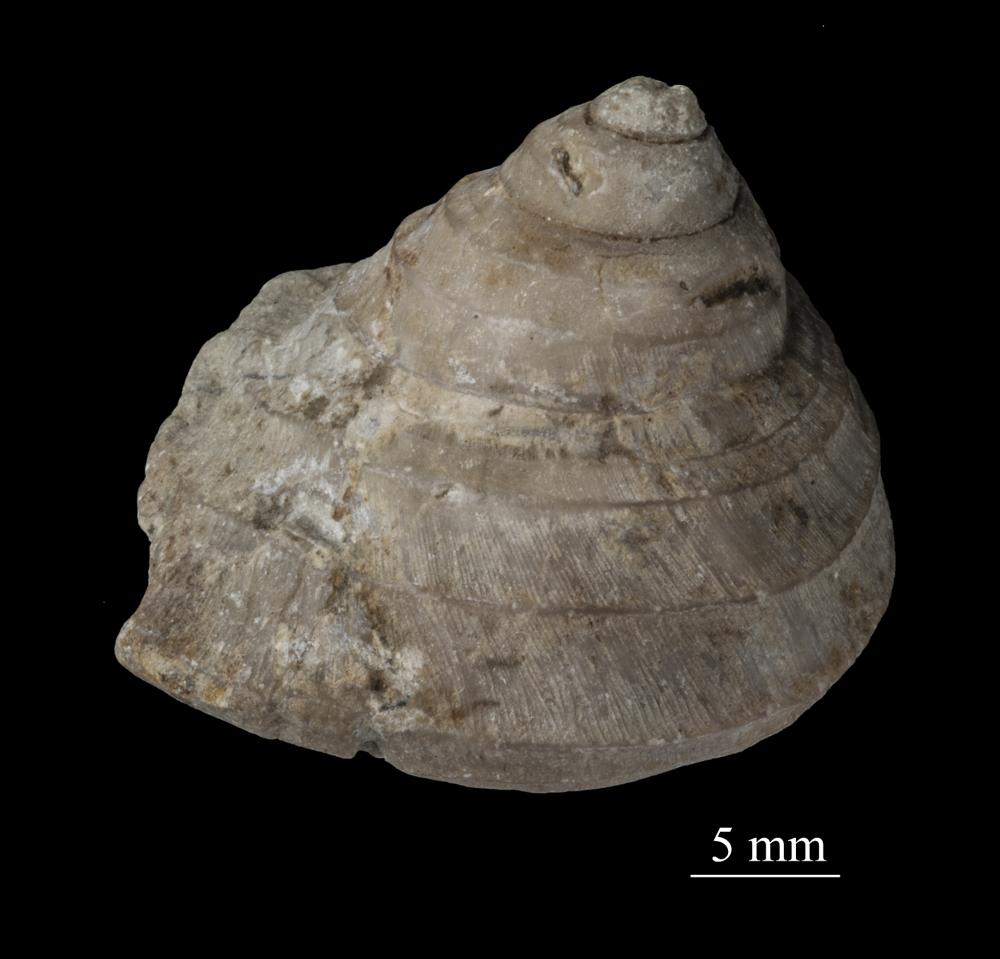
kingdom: Animalia
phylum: Mollusca
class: Gastropoda
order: Trochida
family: Trochidae
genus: Trochus
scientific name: Trochus
